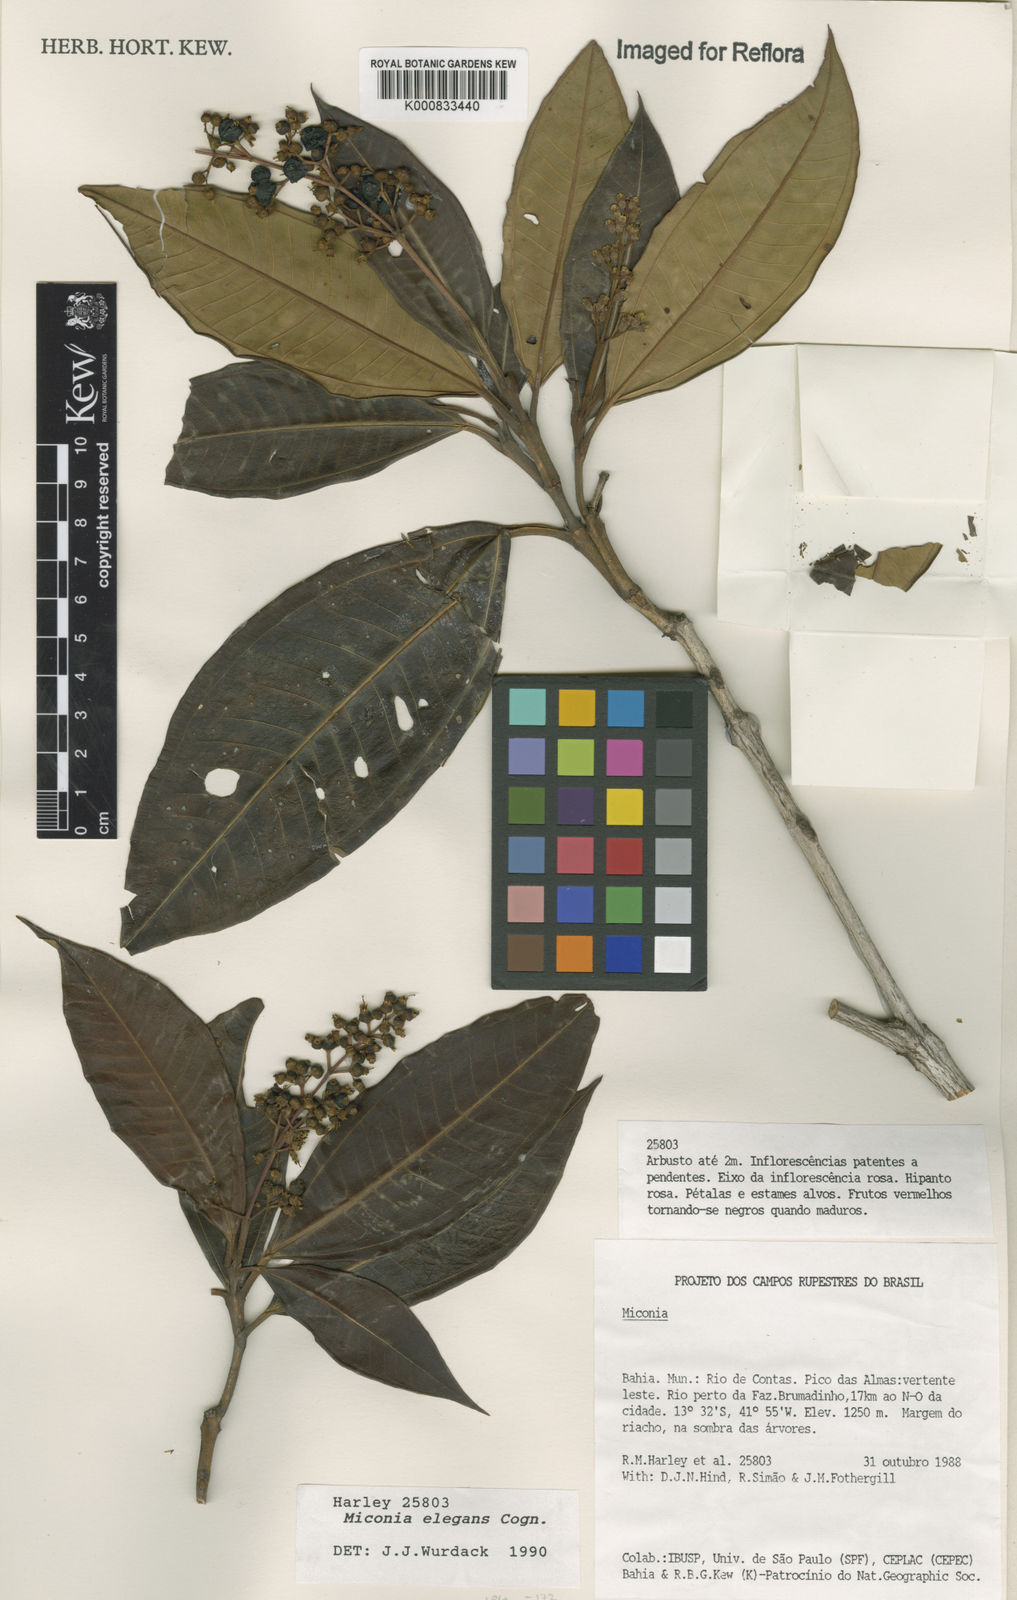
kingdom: Plantae
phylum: Tracheophyta
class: Magnoliopsida
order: Myrtales
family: Melastomataceae
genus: Miconia
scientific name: Miconia elegans
